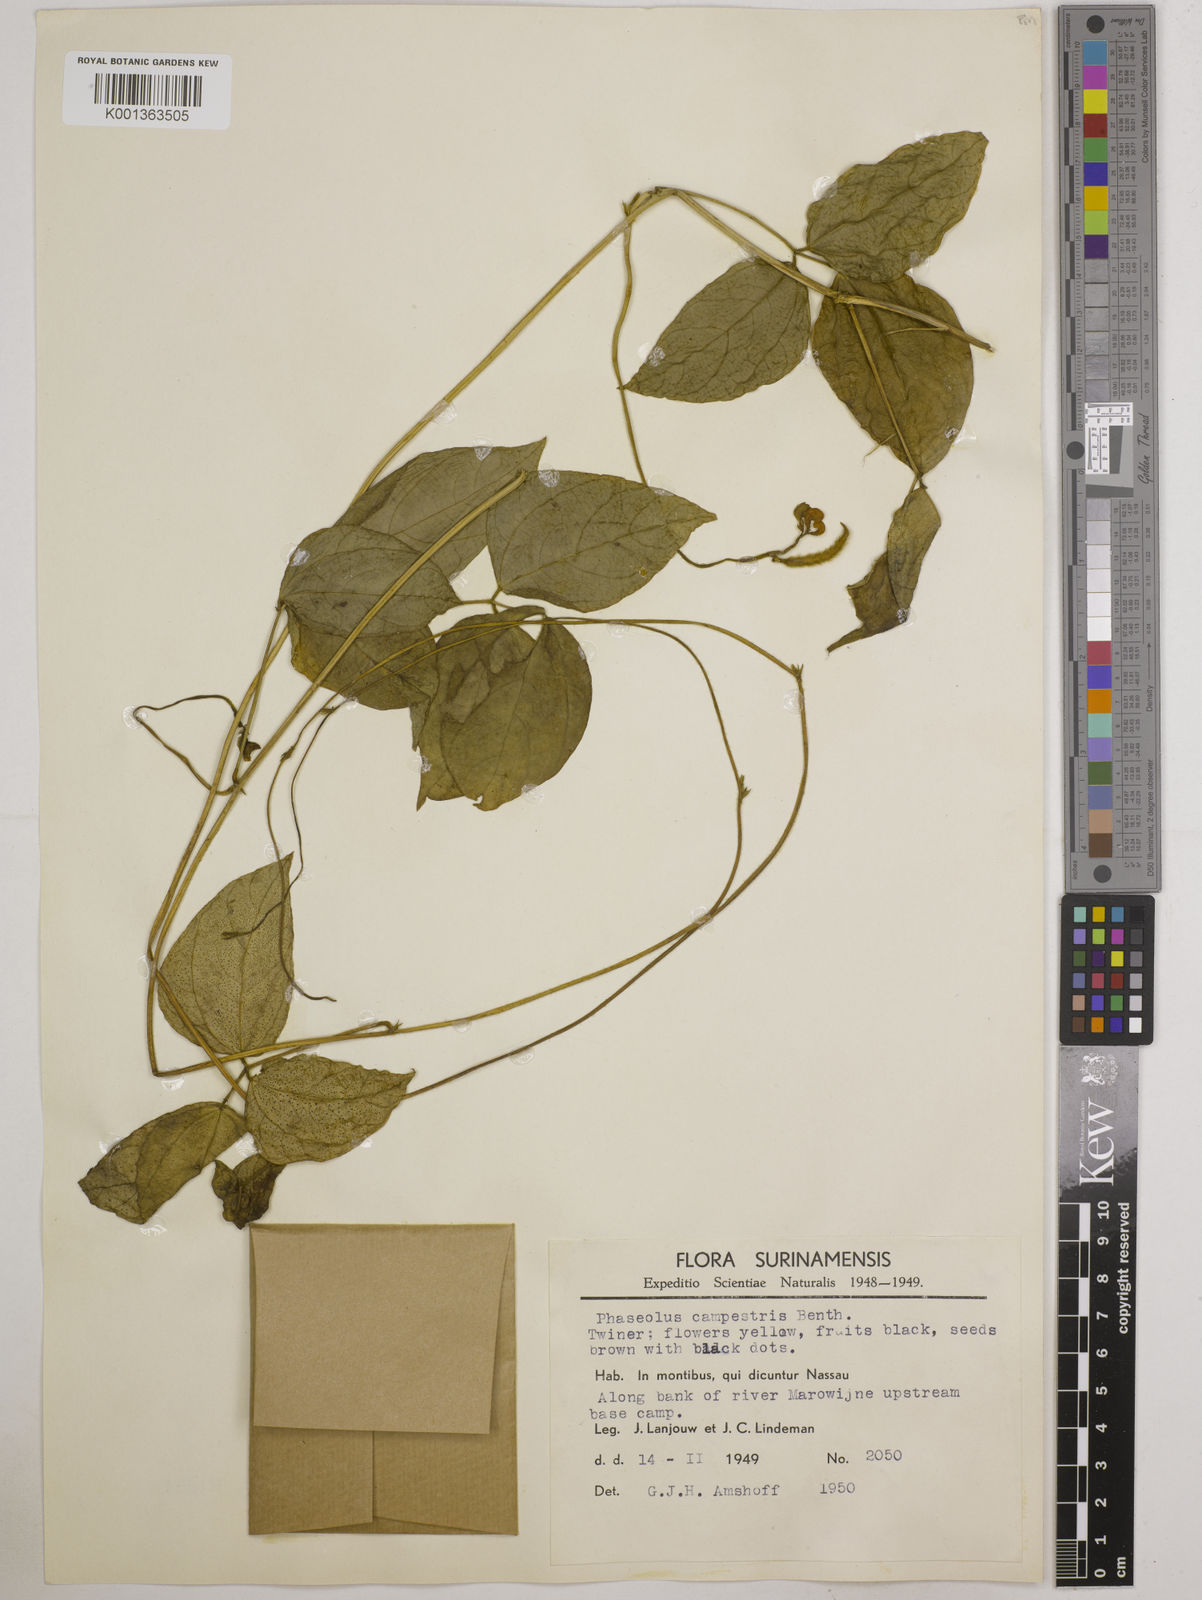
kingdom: Plantae
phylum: Tracheophyta
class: Magnoliopsida
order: Fabales
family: Fabaceae
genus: Vigna
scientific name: Vigna juruana
